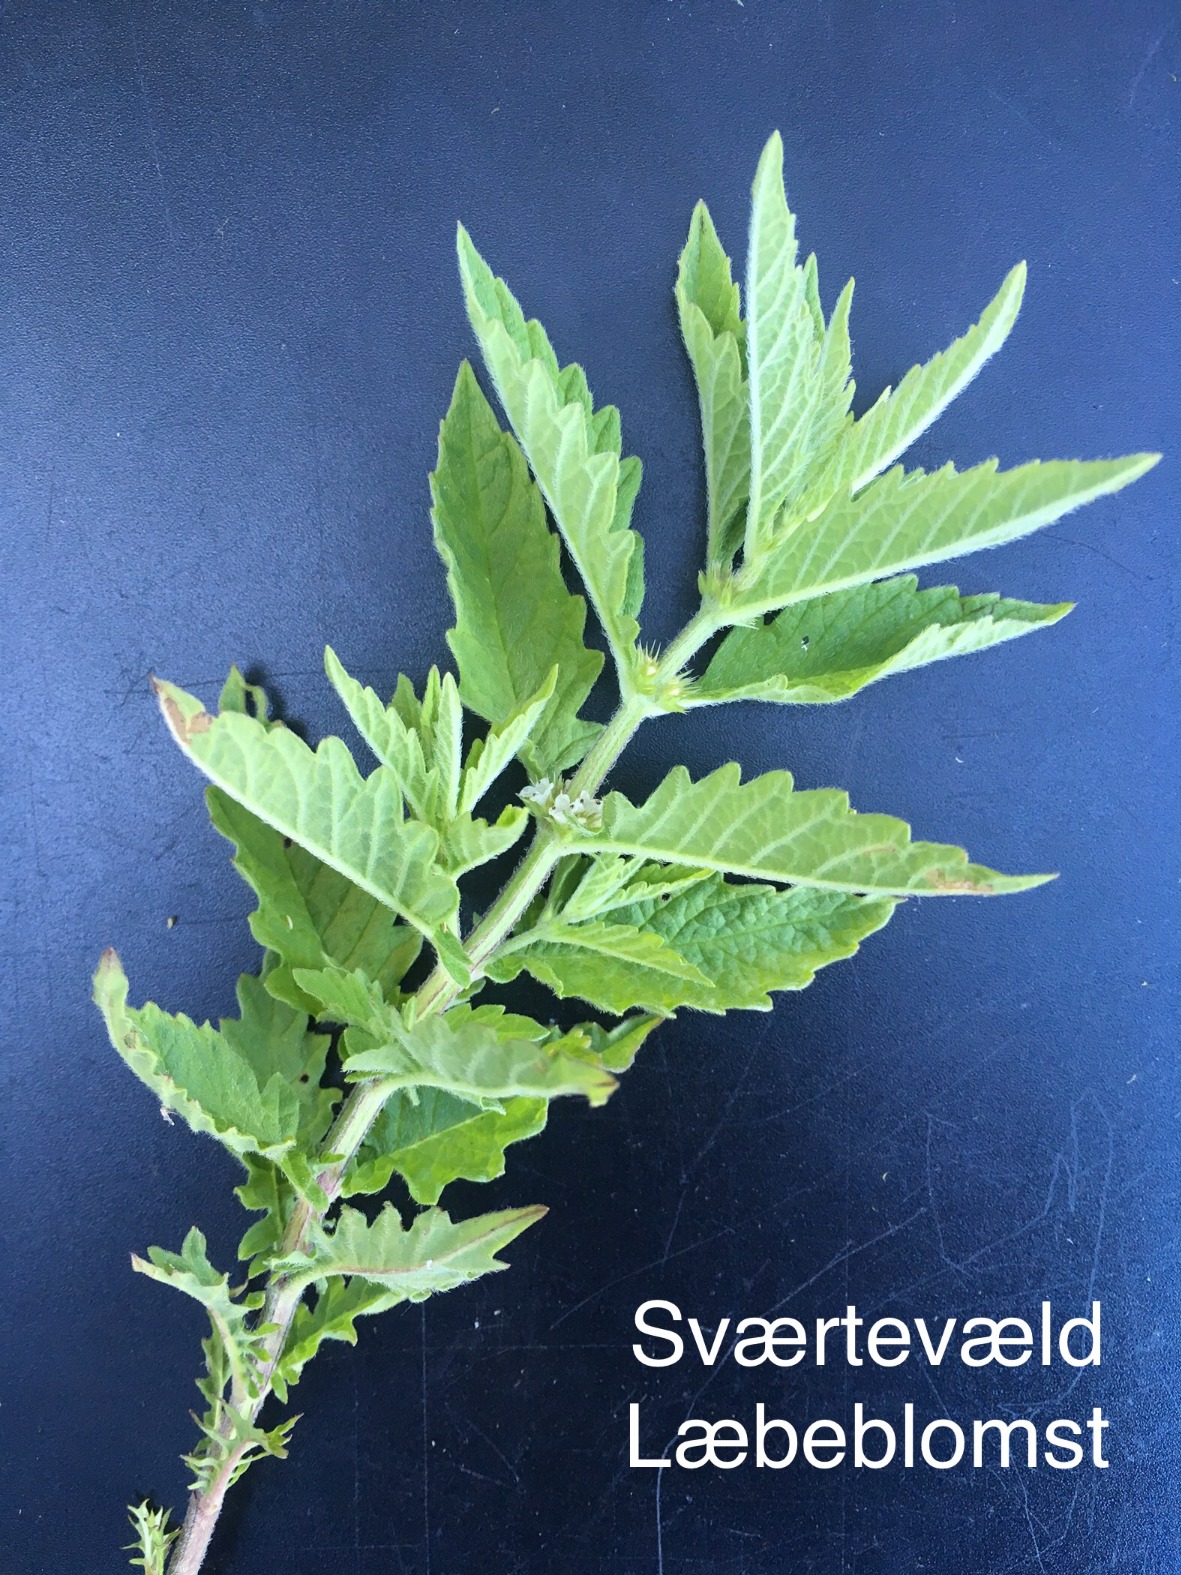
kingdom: Plantae
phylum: Tracheophyta
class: Magnoliopsida
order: Lamiales
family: Lamiaceae
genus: Lycopus
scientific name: Lycopus europaeus
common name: Sværtevæld
